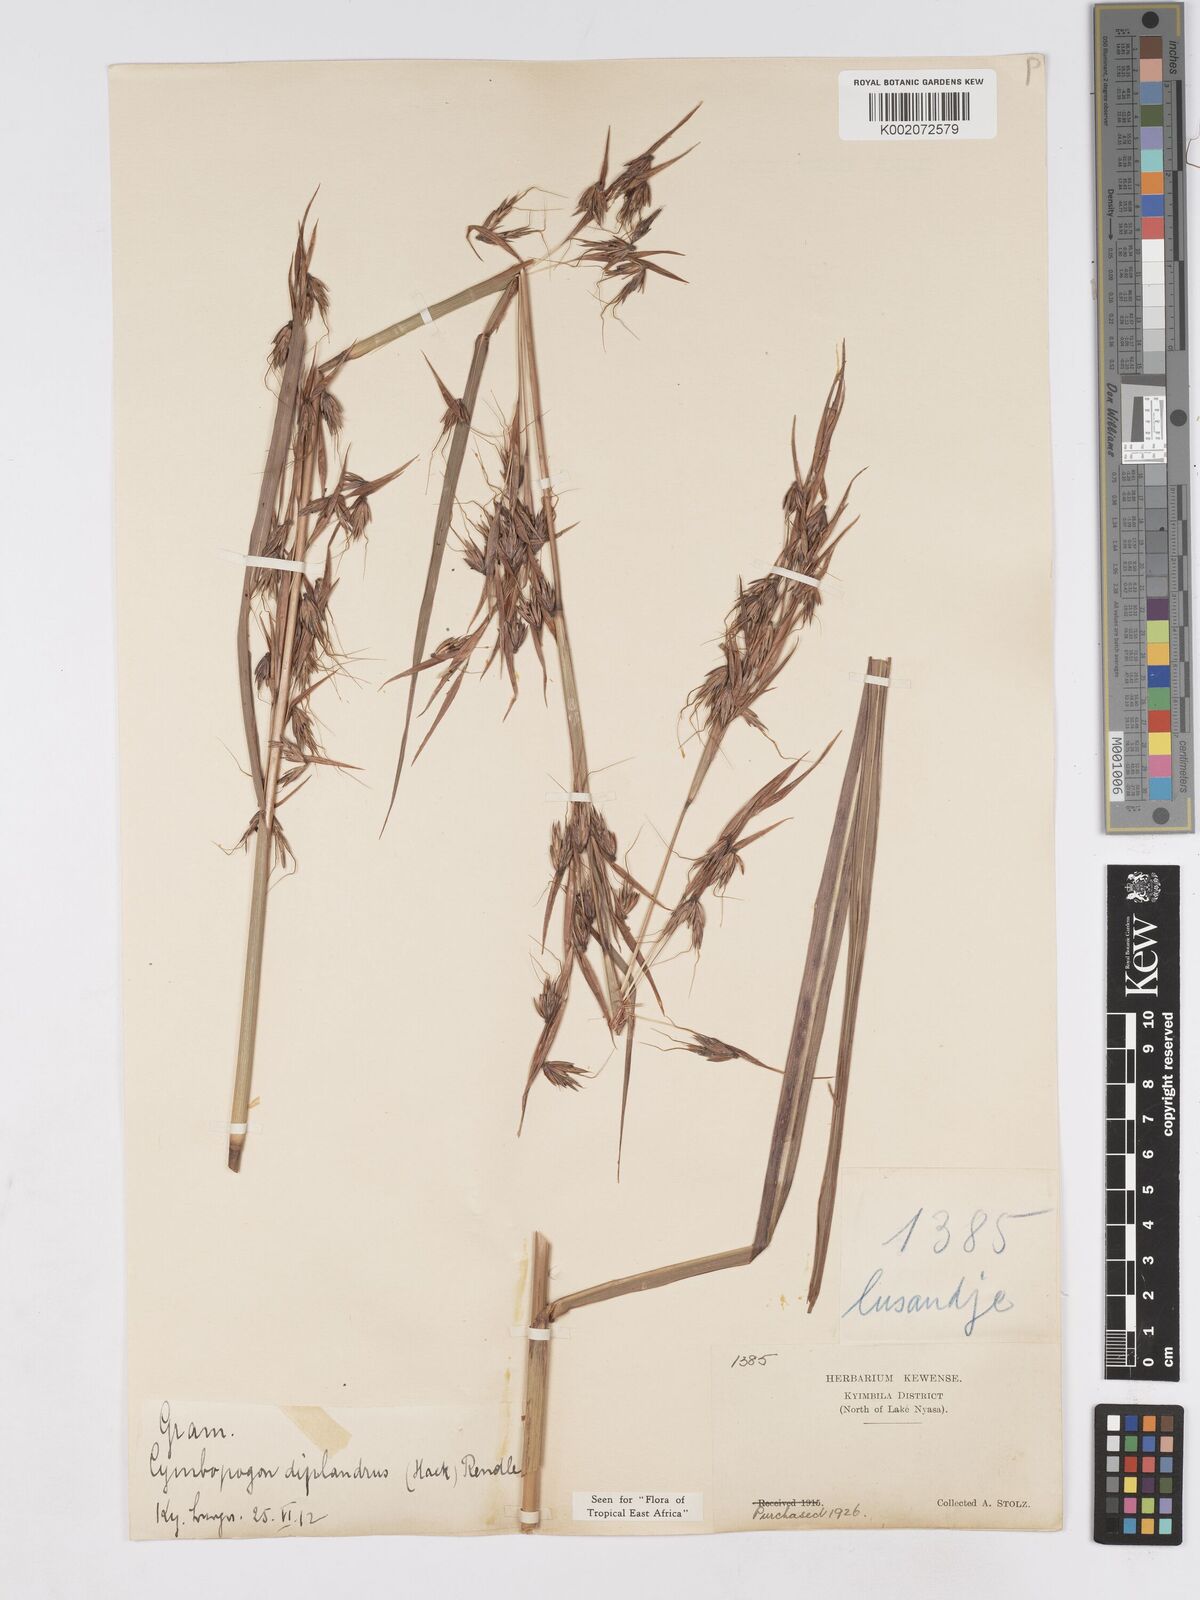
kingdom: Plantae
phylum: Tracheophyta
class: Liliopsida
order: Poales
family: Poaceae
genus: Hyparrhenia
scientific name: Hyparrhenia diplandra
